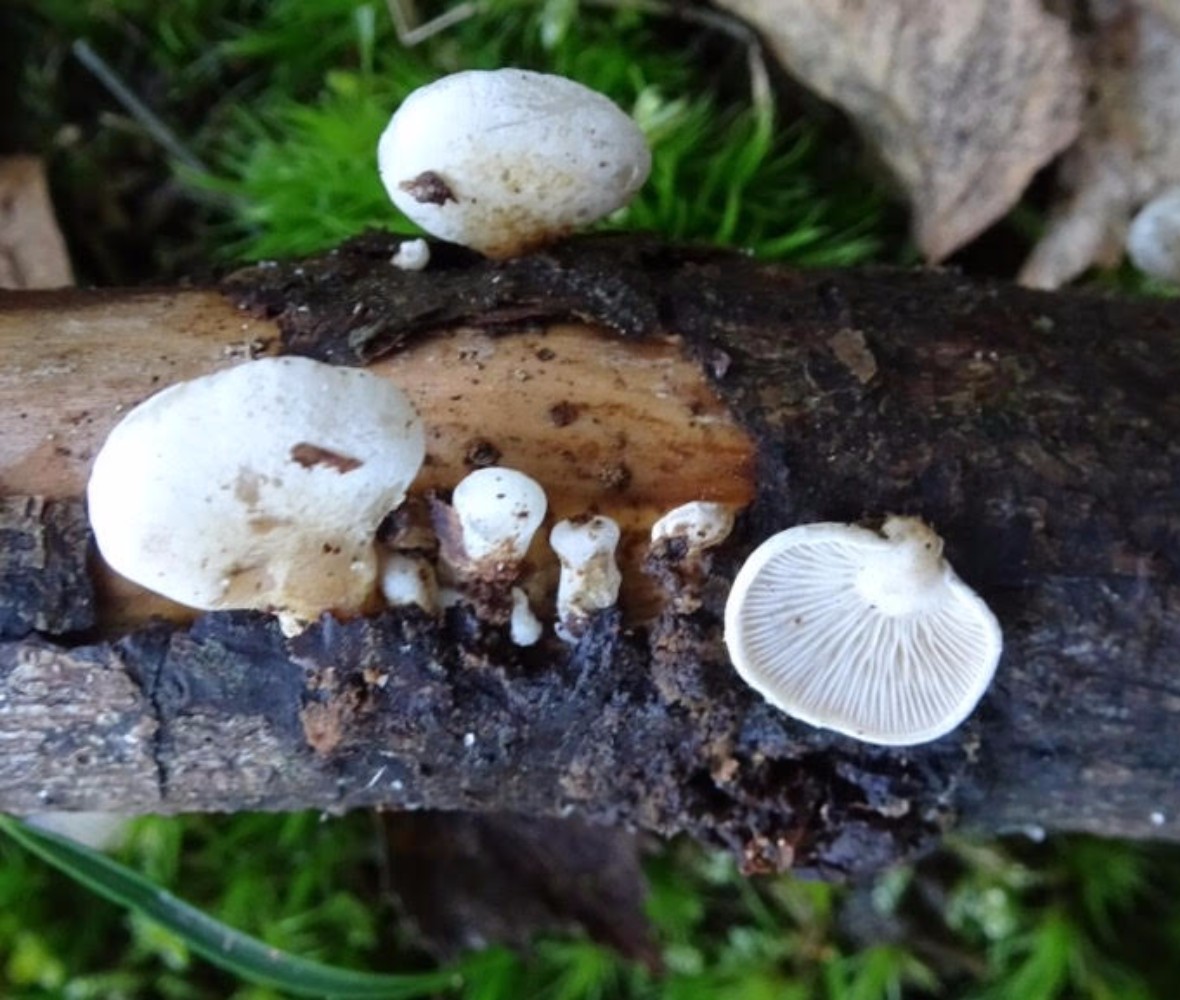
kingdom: Fungi
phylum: Basidiomycota
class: Agaricomycetes
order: Agaricales
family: Mycenaceae
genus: Panellus
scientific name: Panellus mitis
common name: mild epaulethat
